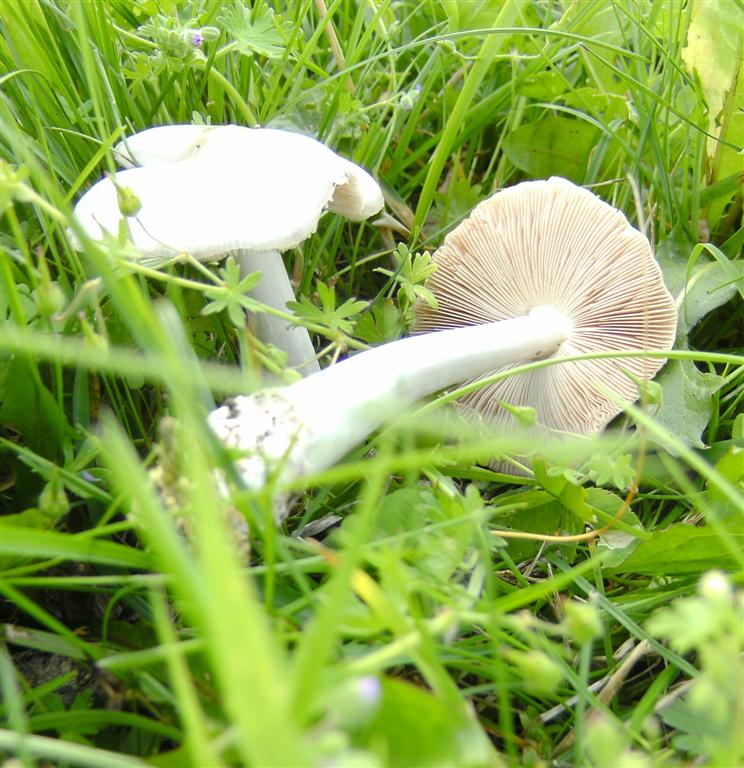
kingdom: Fungi
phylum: Basidiomycota
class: Agaricomycetes
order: Agaricales
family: Pluteaceae
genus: Volvopluteus
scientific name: Volvopluteus gloiocephalus
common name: høj posesvamp
